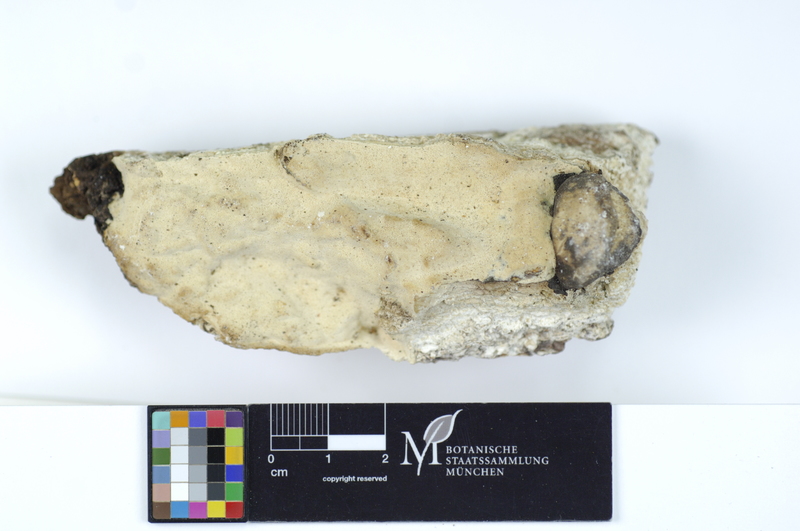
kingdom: Plantae
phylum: Tracheophyta
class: Pinopsida
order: Pinales
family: Pinaceae
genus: Picea
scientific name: Picea
